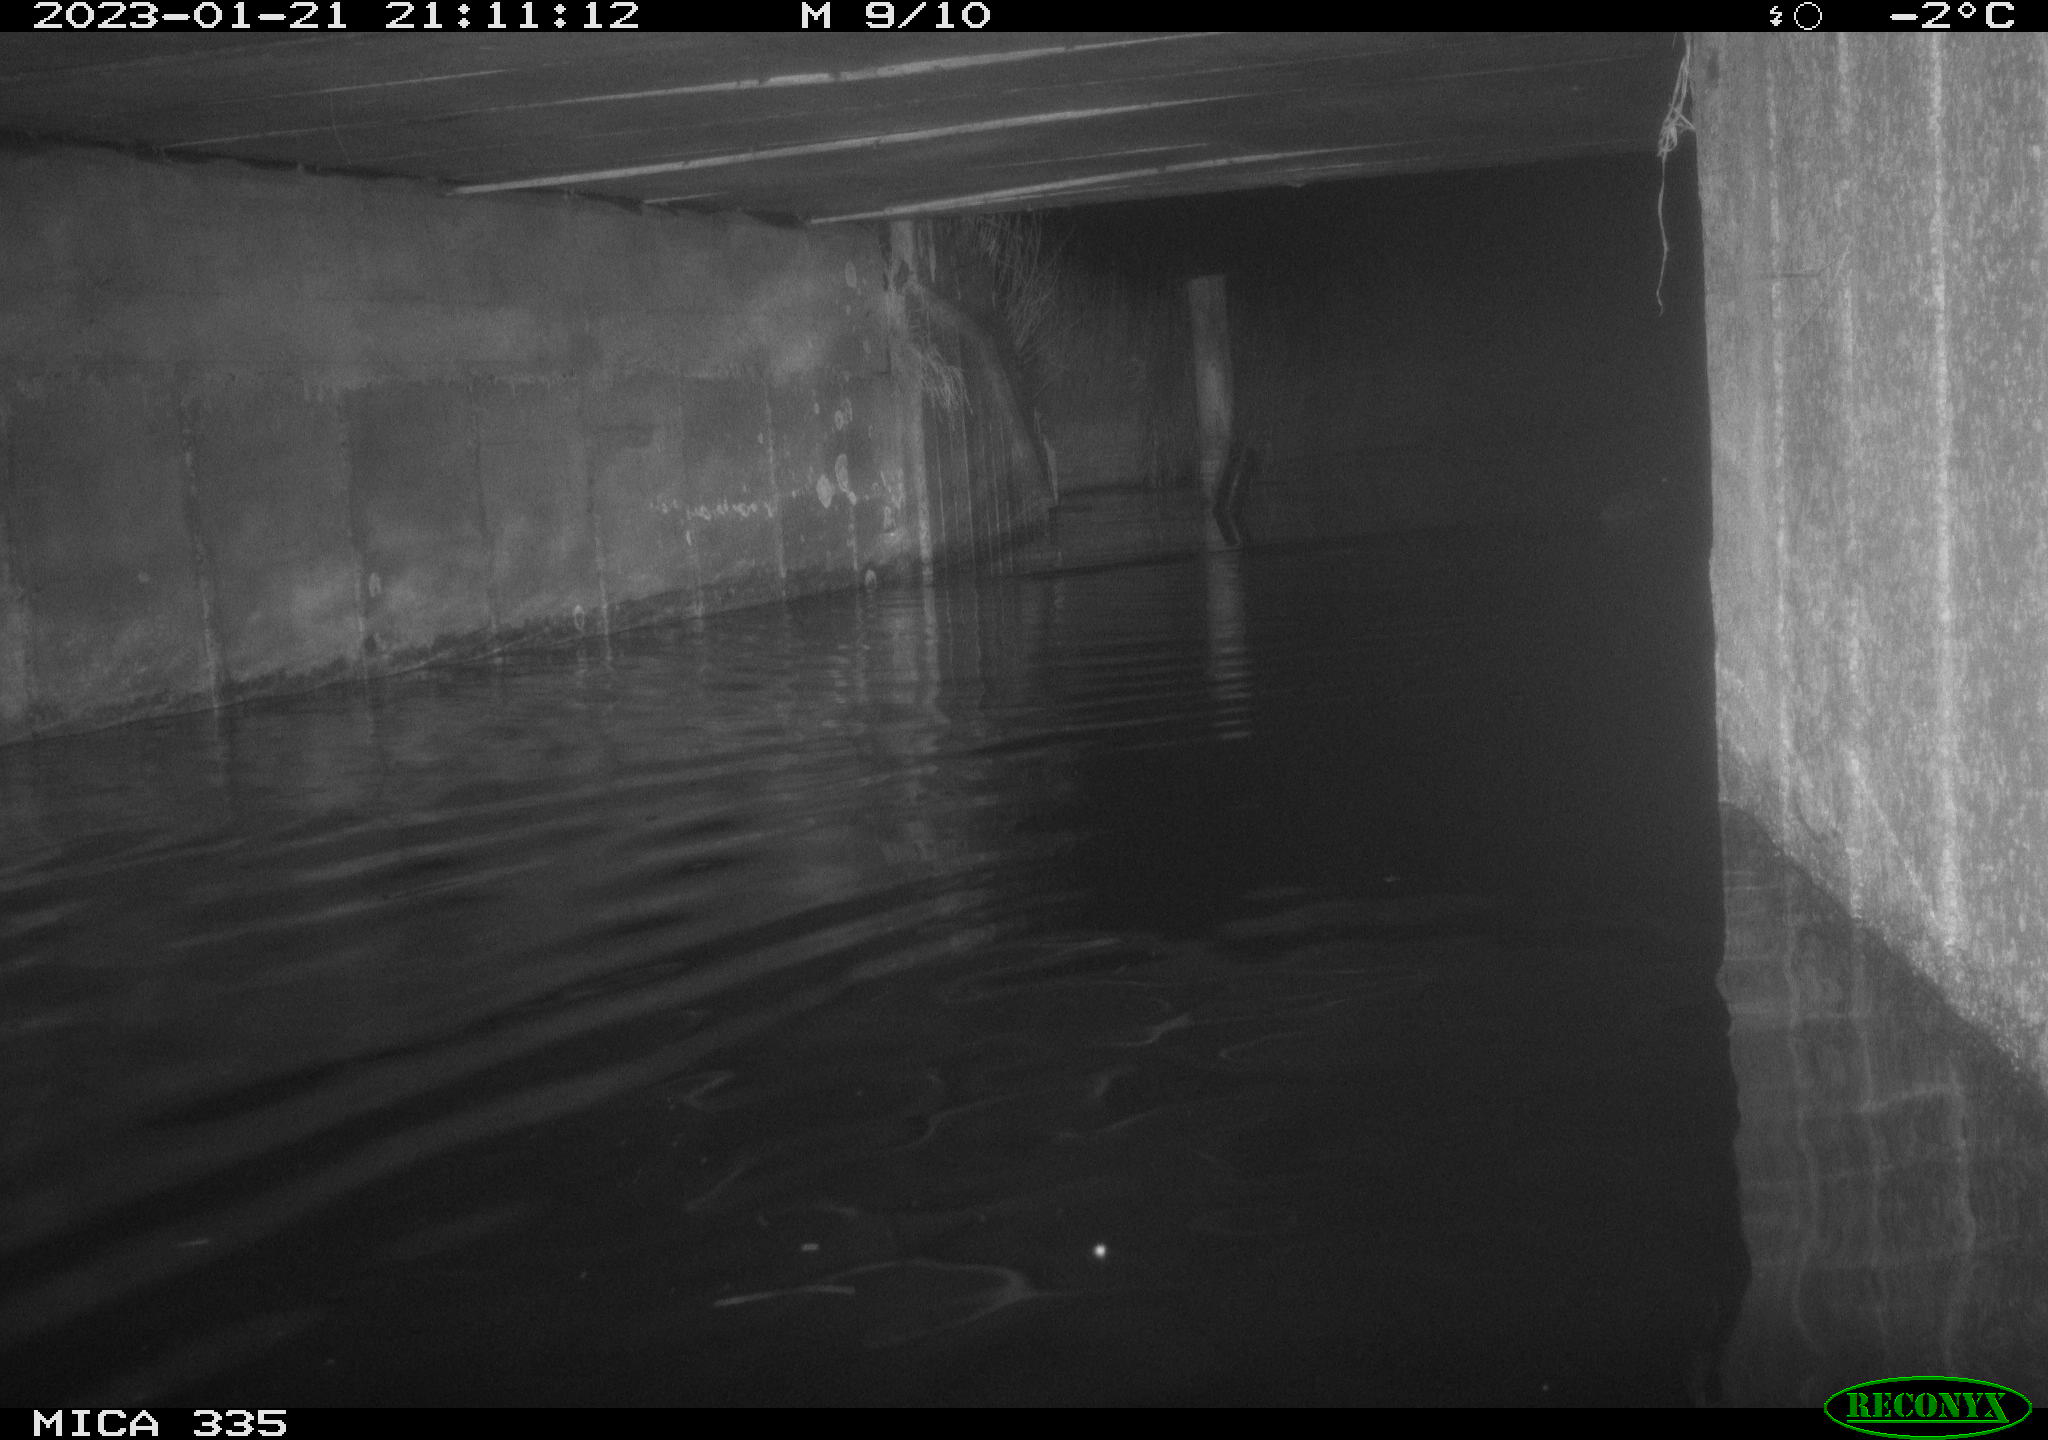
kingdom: Animalia
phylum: Chordata
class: Aves
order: Anseriformes
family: Anatidae
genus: Anas
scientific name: Anas
